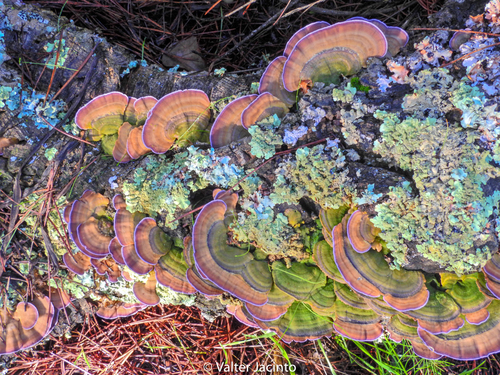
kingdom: Fungi
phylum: Basidiomycota
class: Agaricomycetes
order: Hymenochaetales
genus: Trichaptum
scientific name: Trichaptum biforme
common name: Violet-toothed polypore
